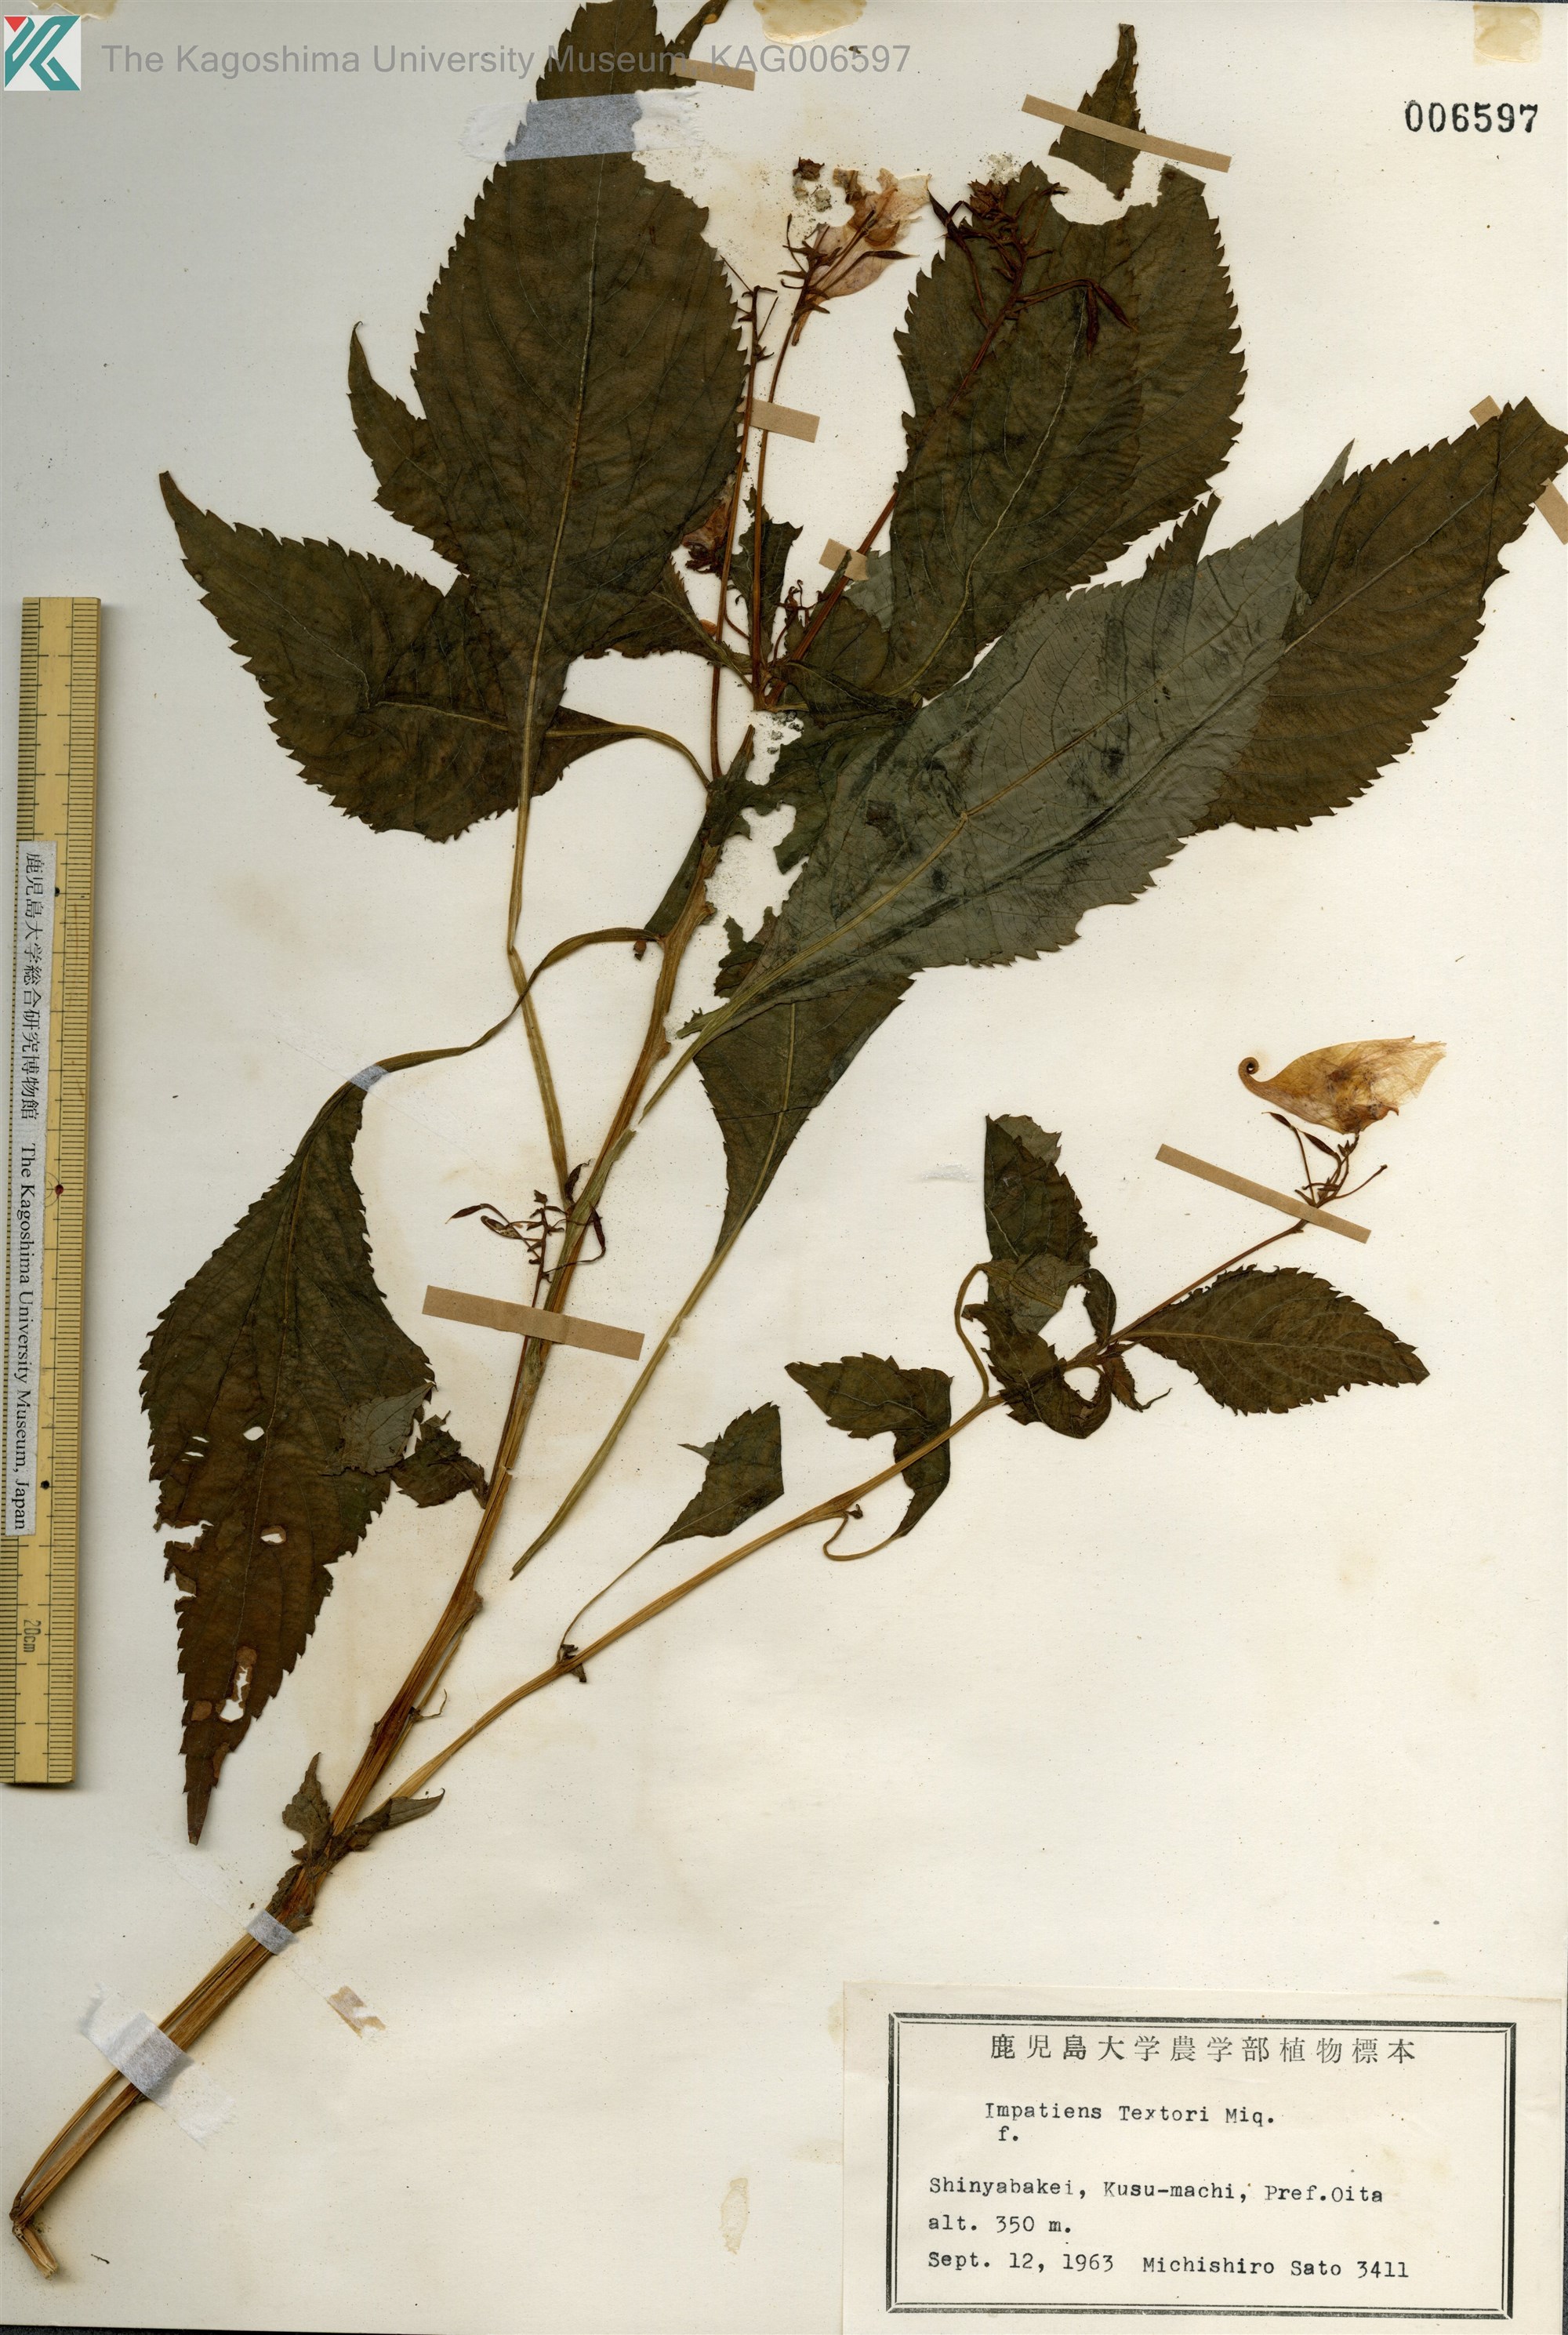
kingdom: Plantae
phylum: Tracheophyta
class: Magnoliopsida
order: Ericales
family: Balsaminaceae
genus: Impatiens
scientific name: Impatiens textorii
